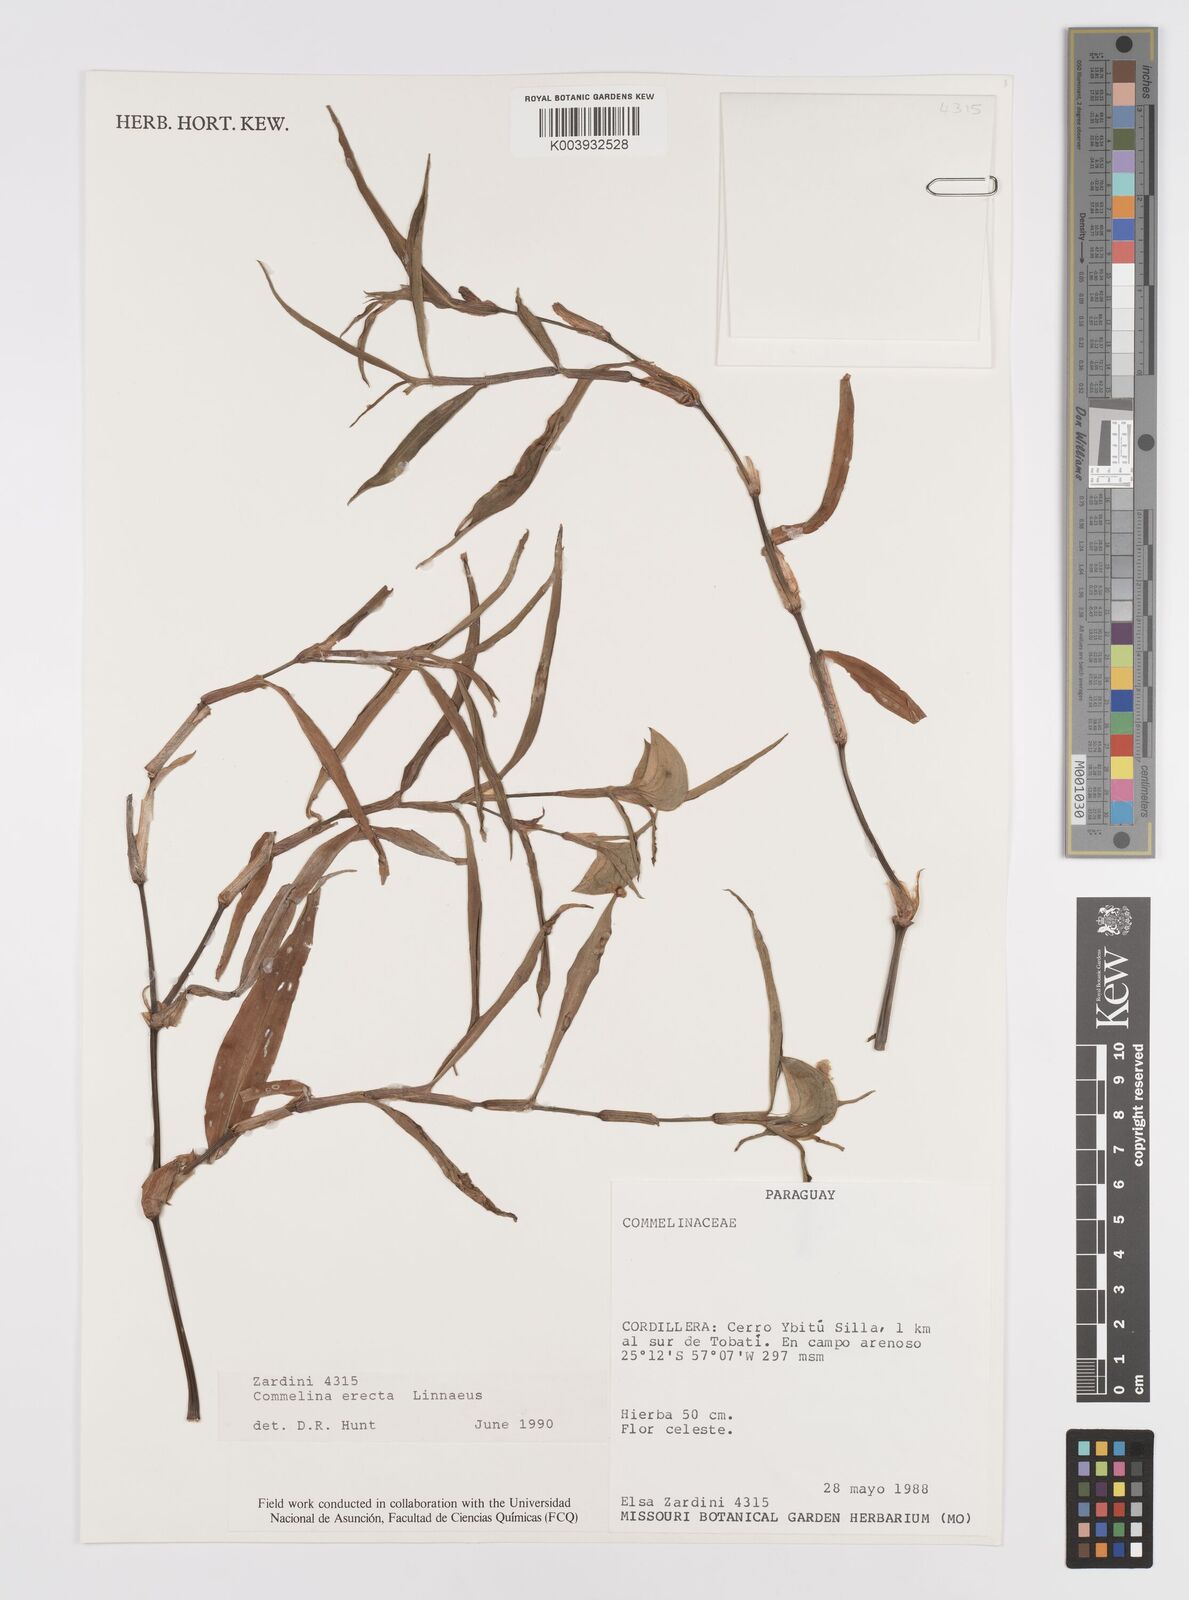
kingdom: Plantae
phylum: Tracheophyta
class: Liliopsida
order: Commelinales
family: Commelinaceae
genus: Commelina
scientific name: Commelina erecta
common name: Blousel blommetjie
